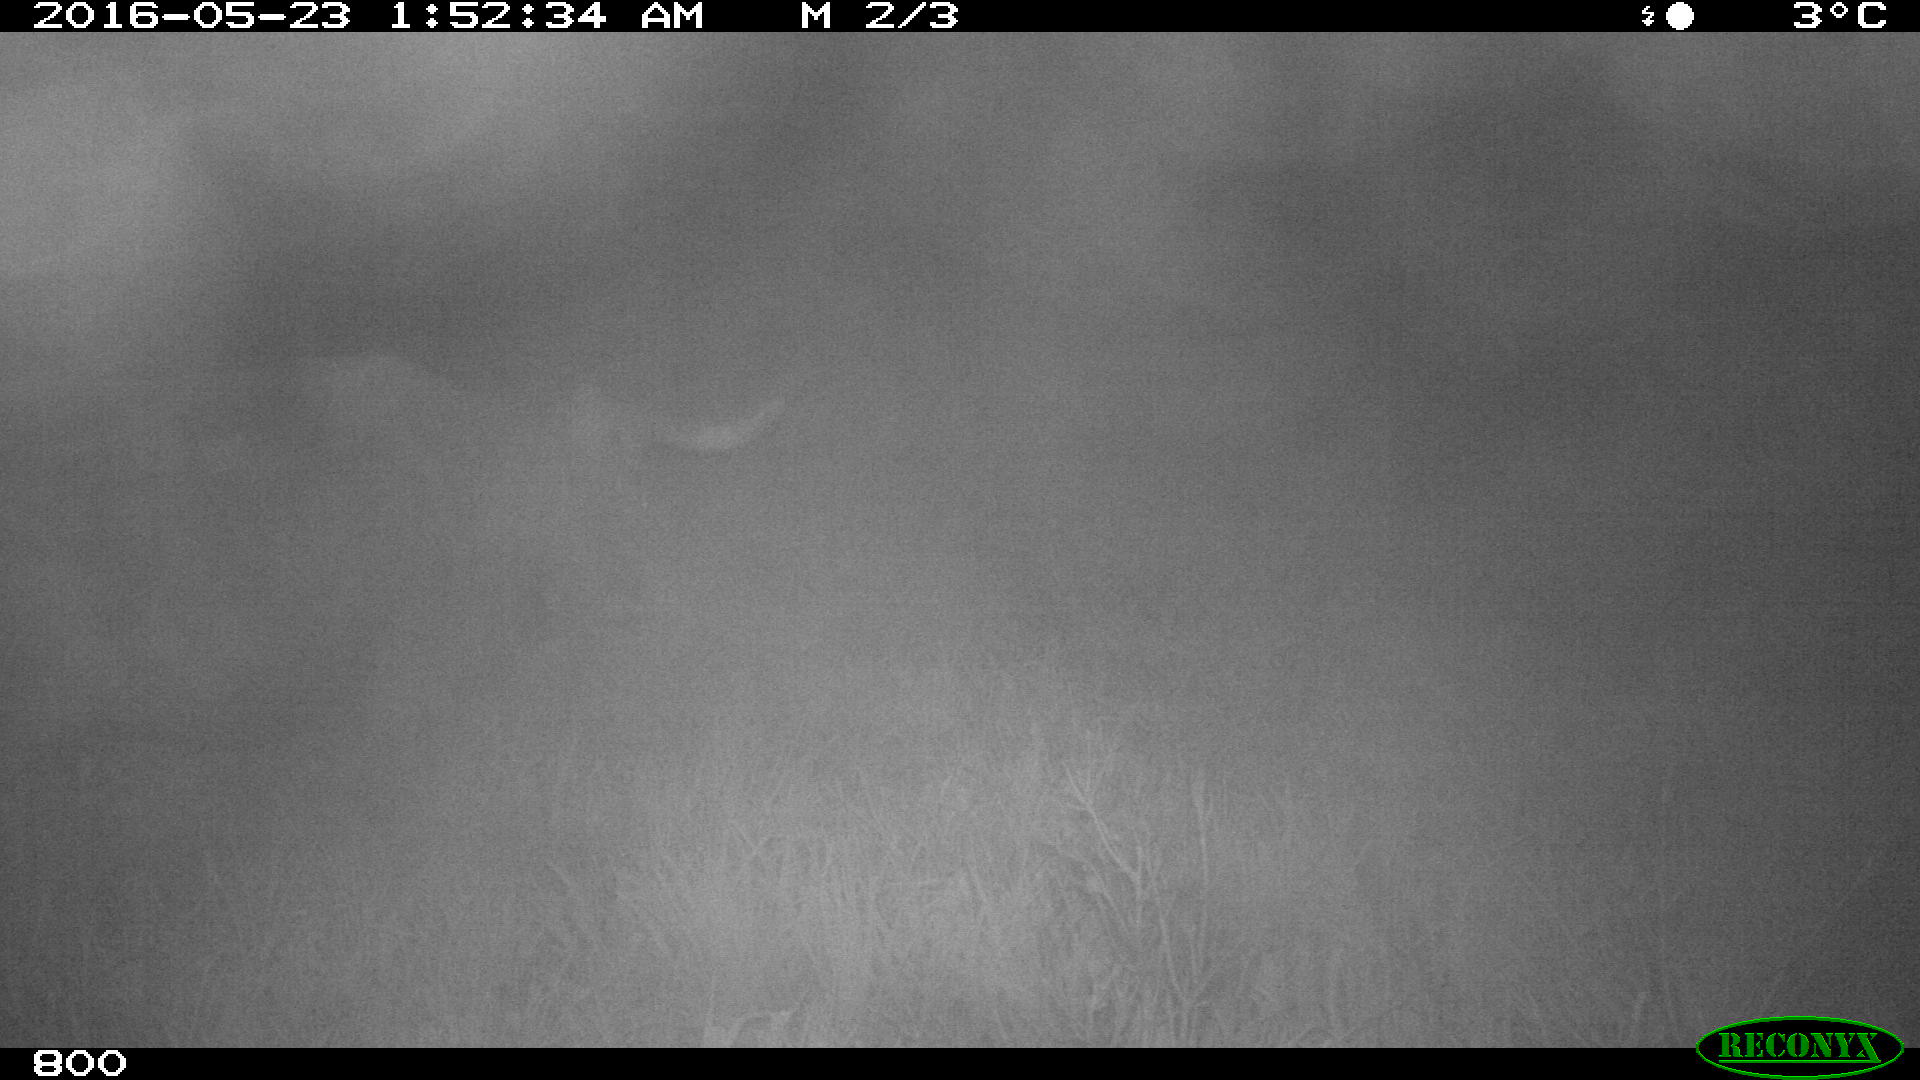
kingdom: Animalia
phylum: Chordata
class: Mammalia
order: Artiodactyla
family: Bovidae
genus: Bos
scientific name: Bos taurus
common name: Domesticated cattle
